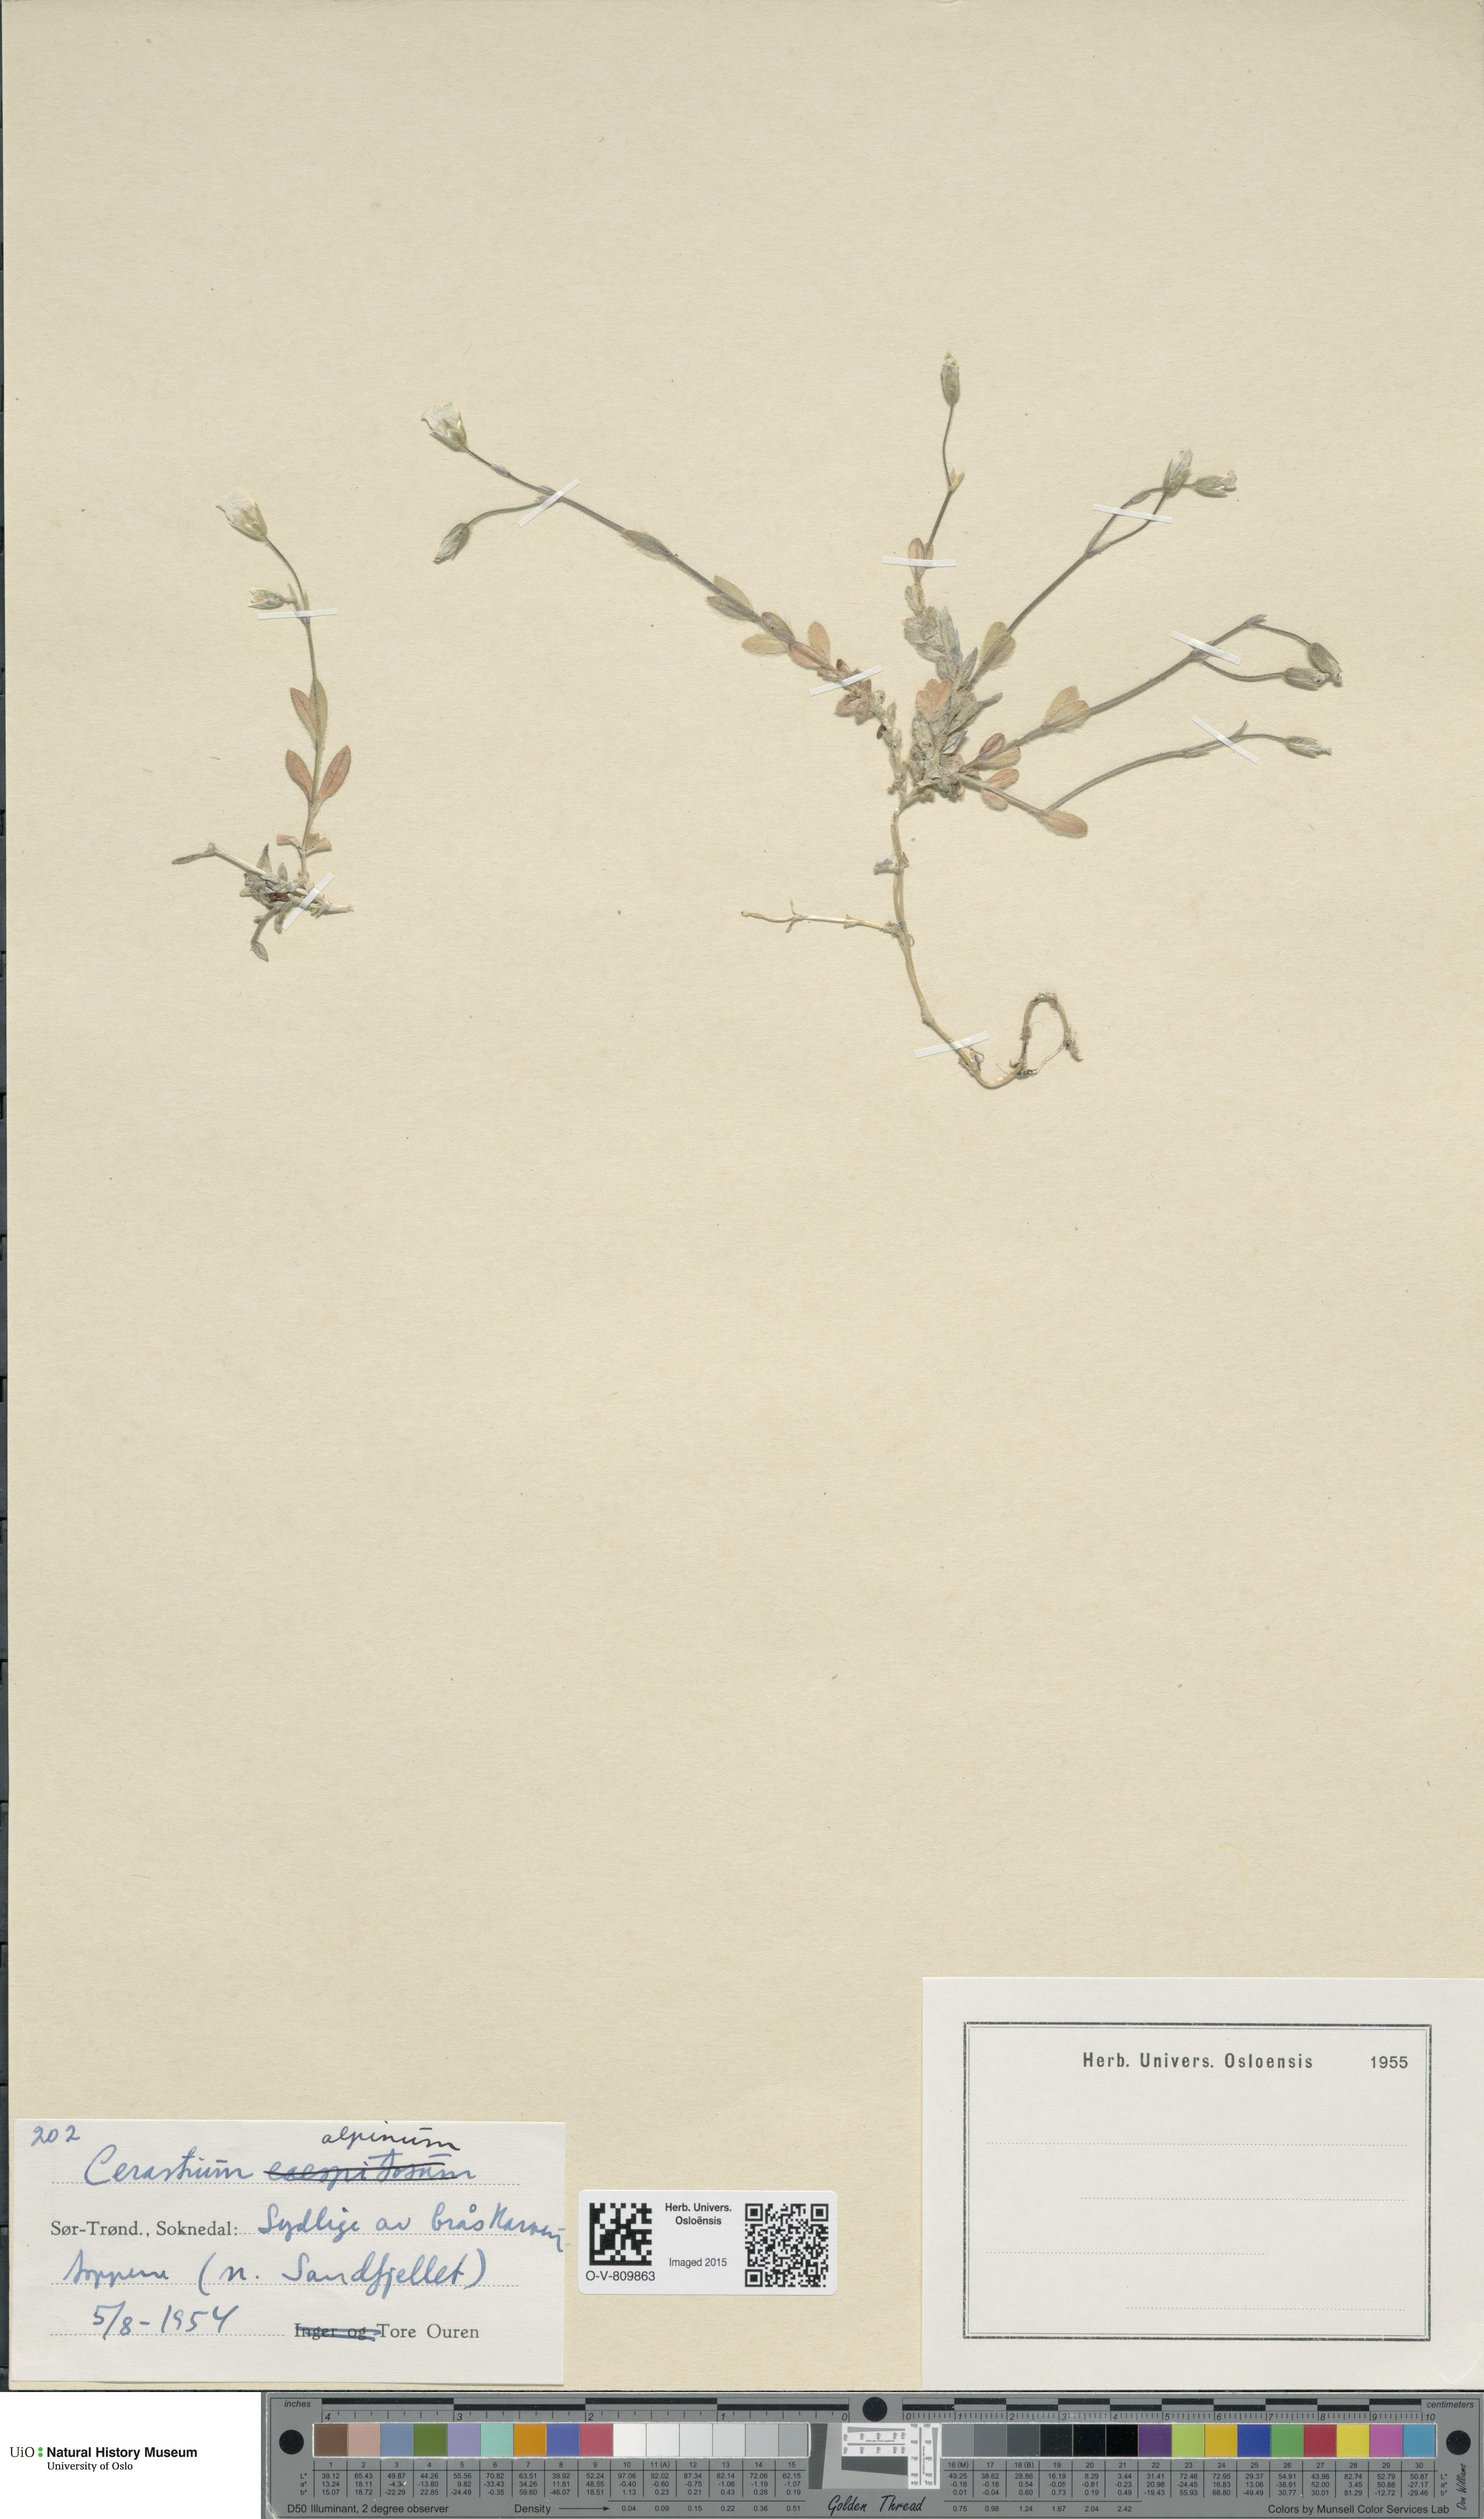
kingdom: Plantae
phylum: Tracheophyta
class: Magnoliopsida
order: Caryophyllales
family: Caryophyllaceae
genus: Cerastium
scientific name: Cerastium alpinum
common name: Alpine mouse-ear
